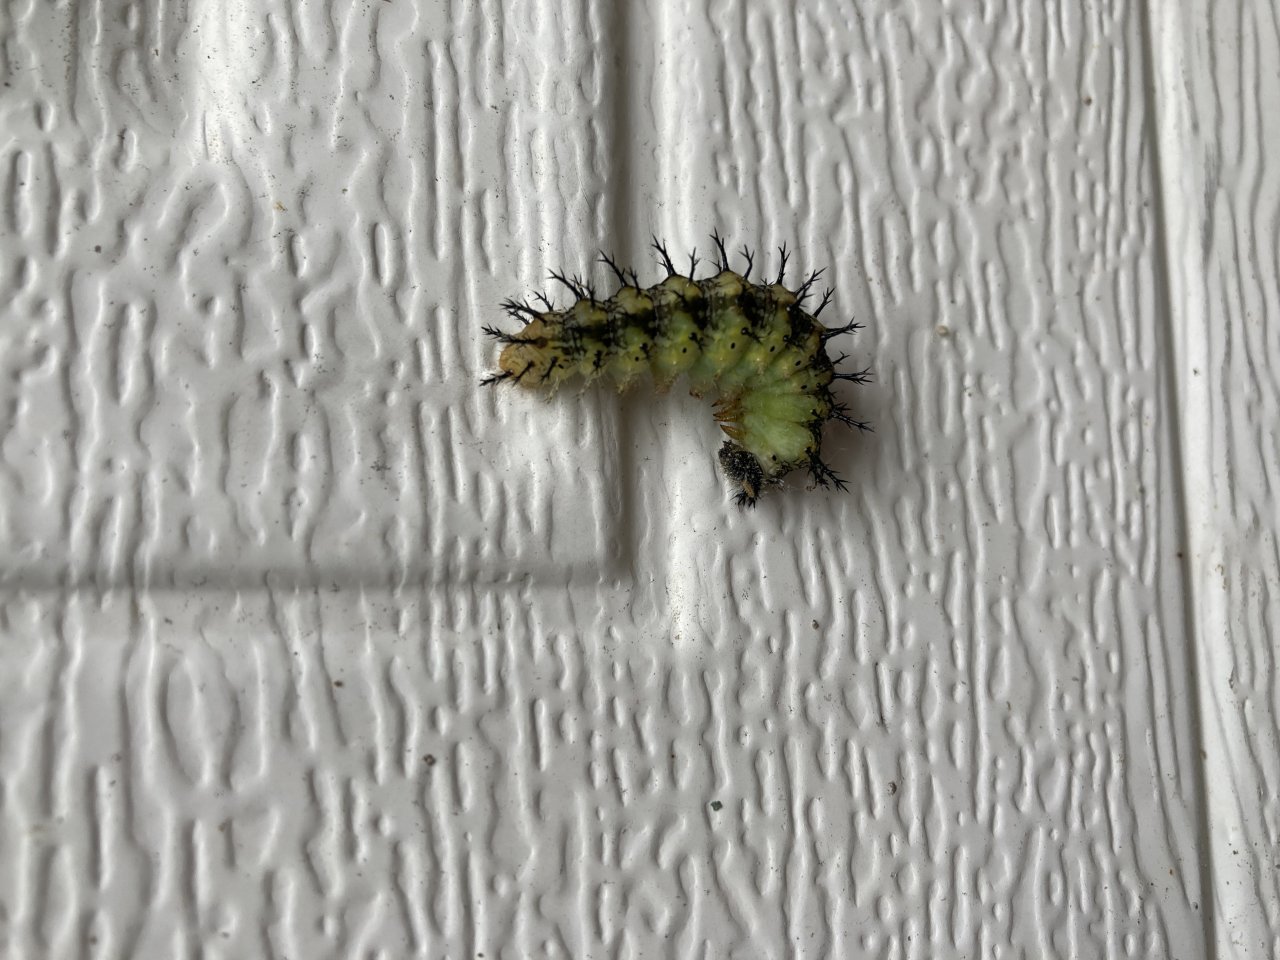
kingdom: Animalia
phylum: Arthropoda
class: Insecta
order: Lepidoptera
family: Nymphalidae
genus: Polygonia
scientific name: Polygonia vaualbum
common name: Compton Tortoiseshell
